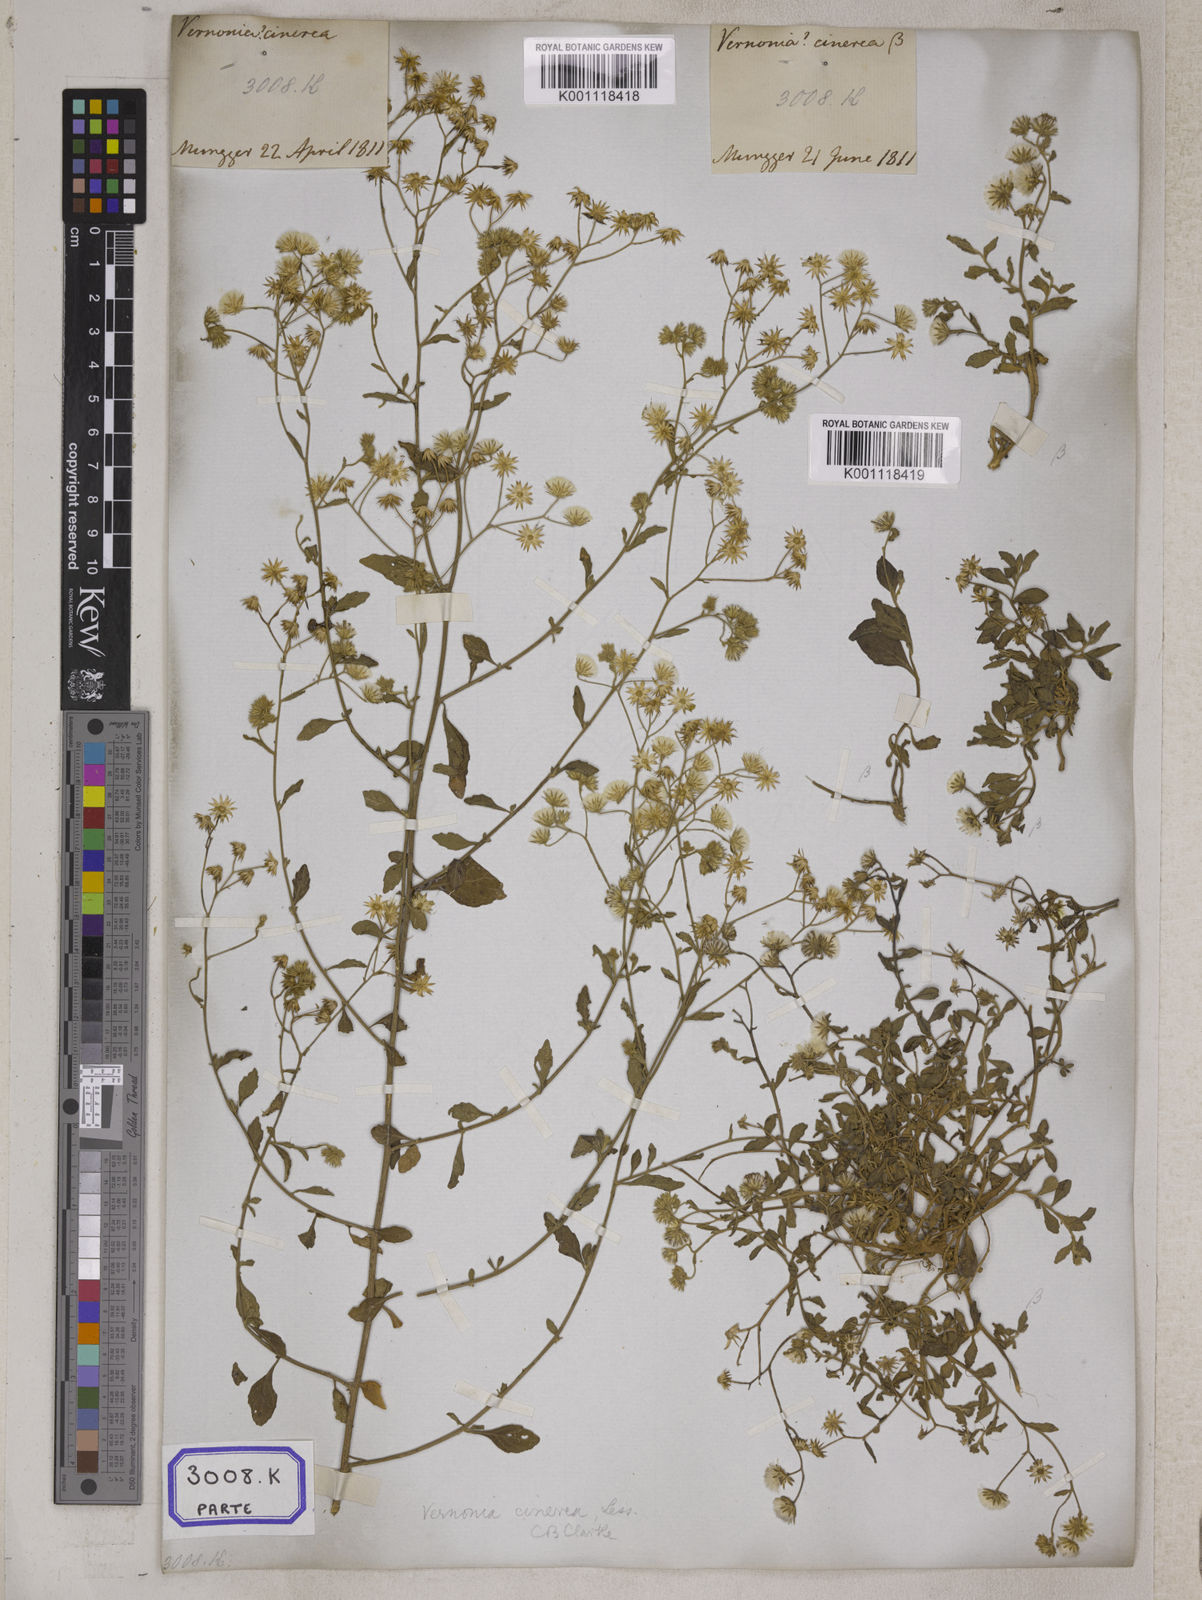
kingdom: Plantae
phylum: Tracheophyta
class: Magnoliopsida
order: Asterales
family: Asteraceae
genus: Cyanthillium
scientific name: Cyanthillium cinereum
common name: Little ironweed
